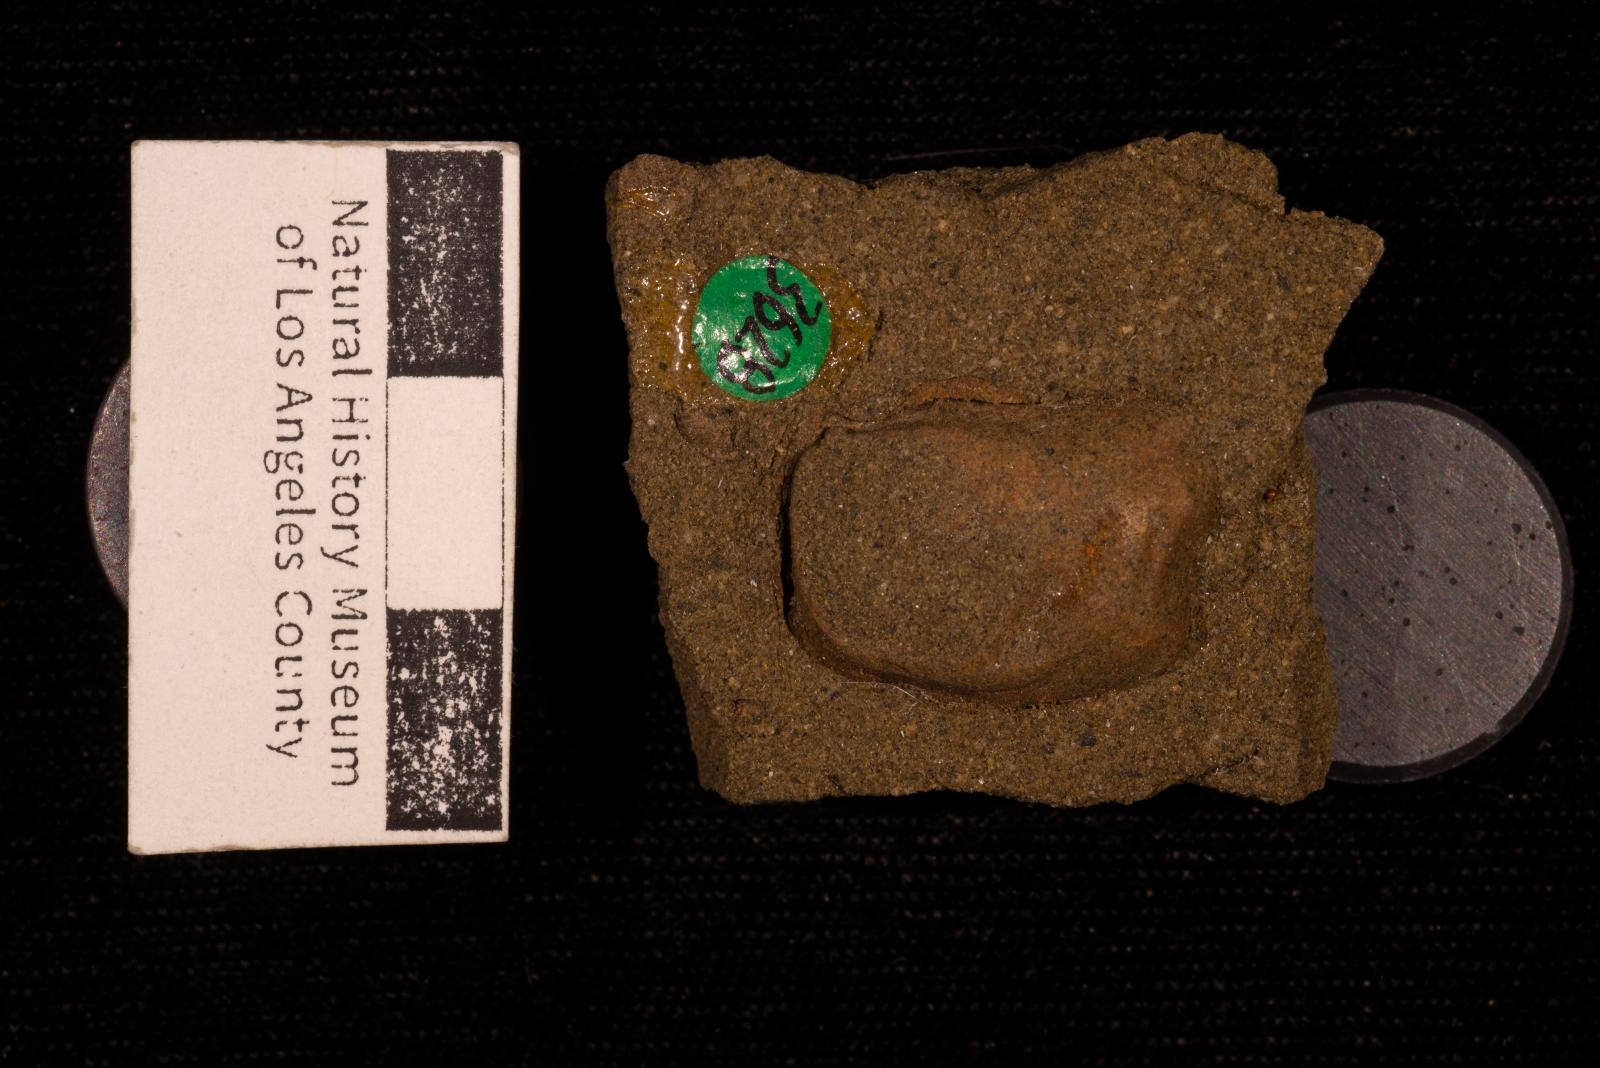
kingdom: Animalia
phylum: Mollusca
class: Bivalvia
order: Ostreida
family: Ostreidae
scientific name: Ostreidae
